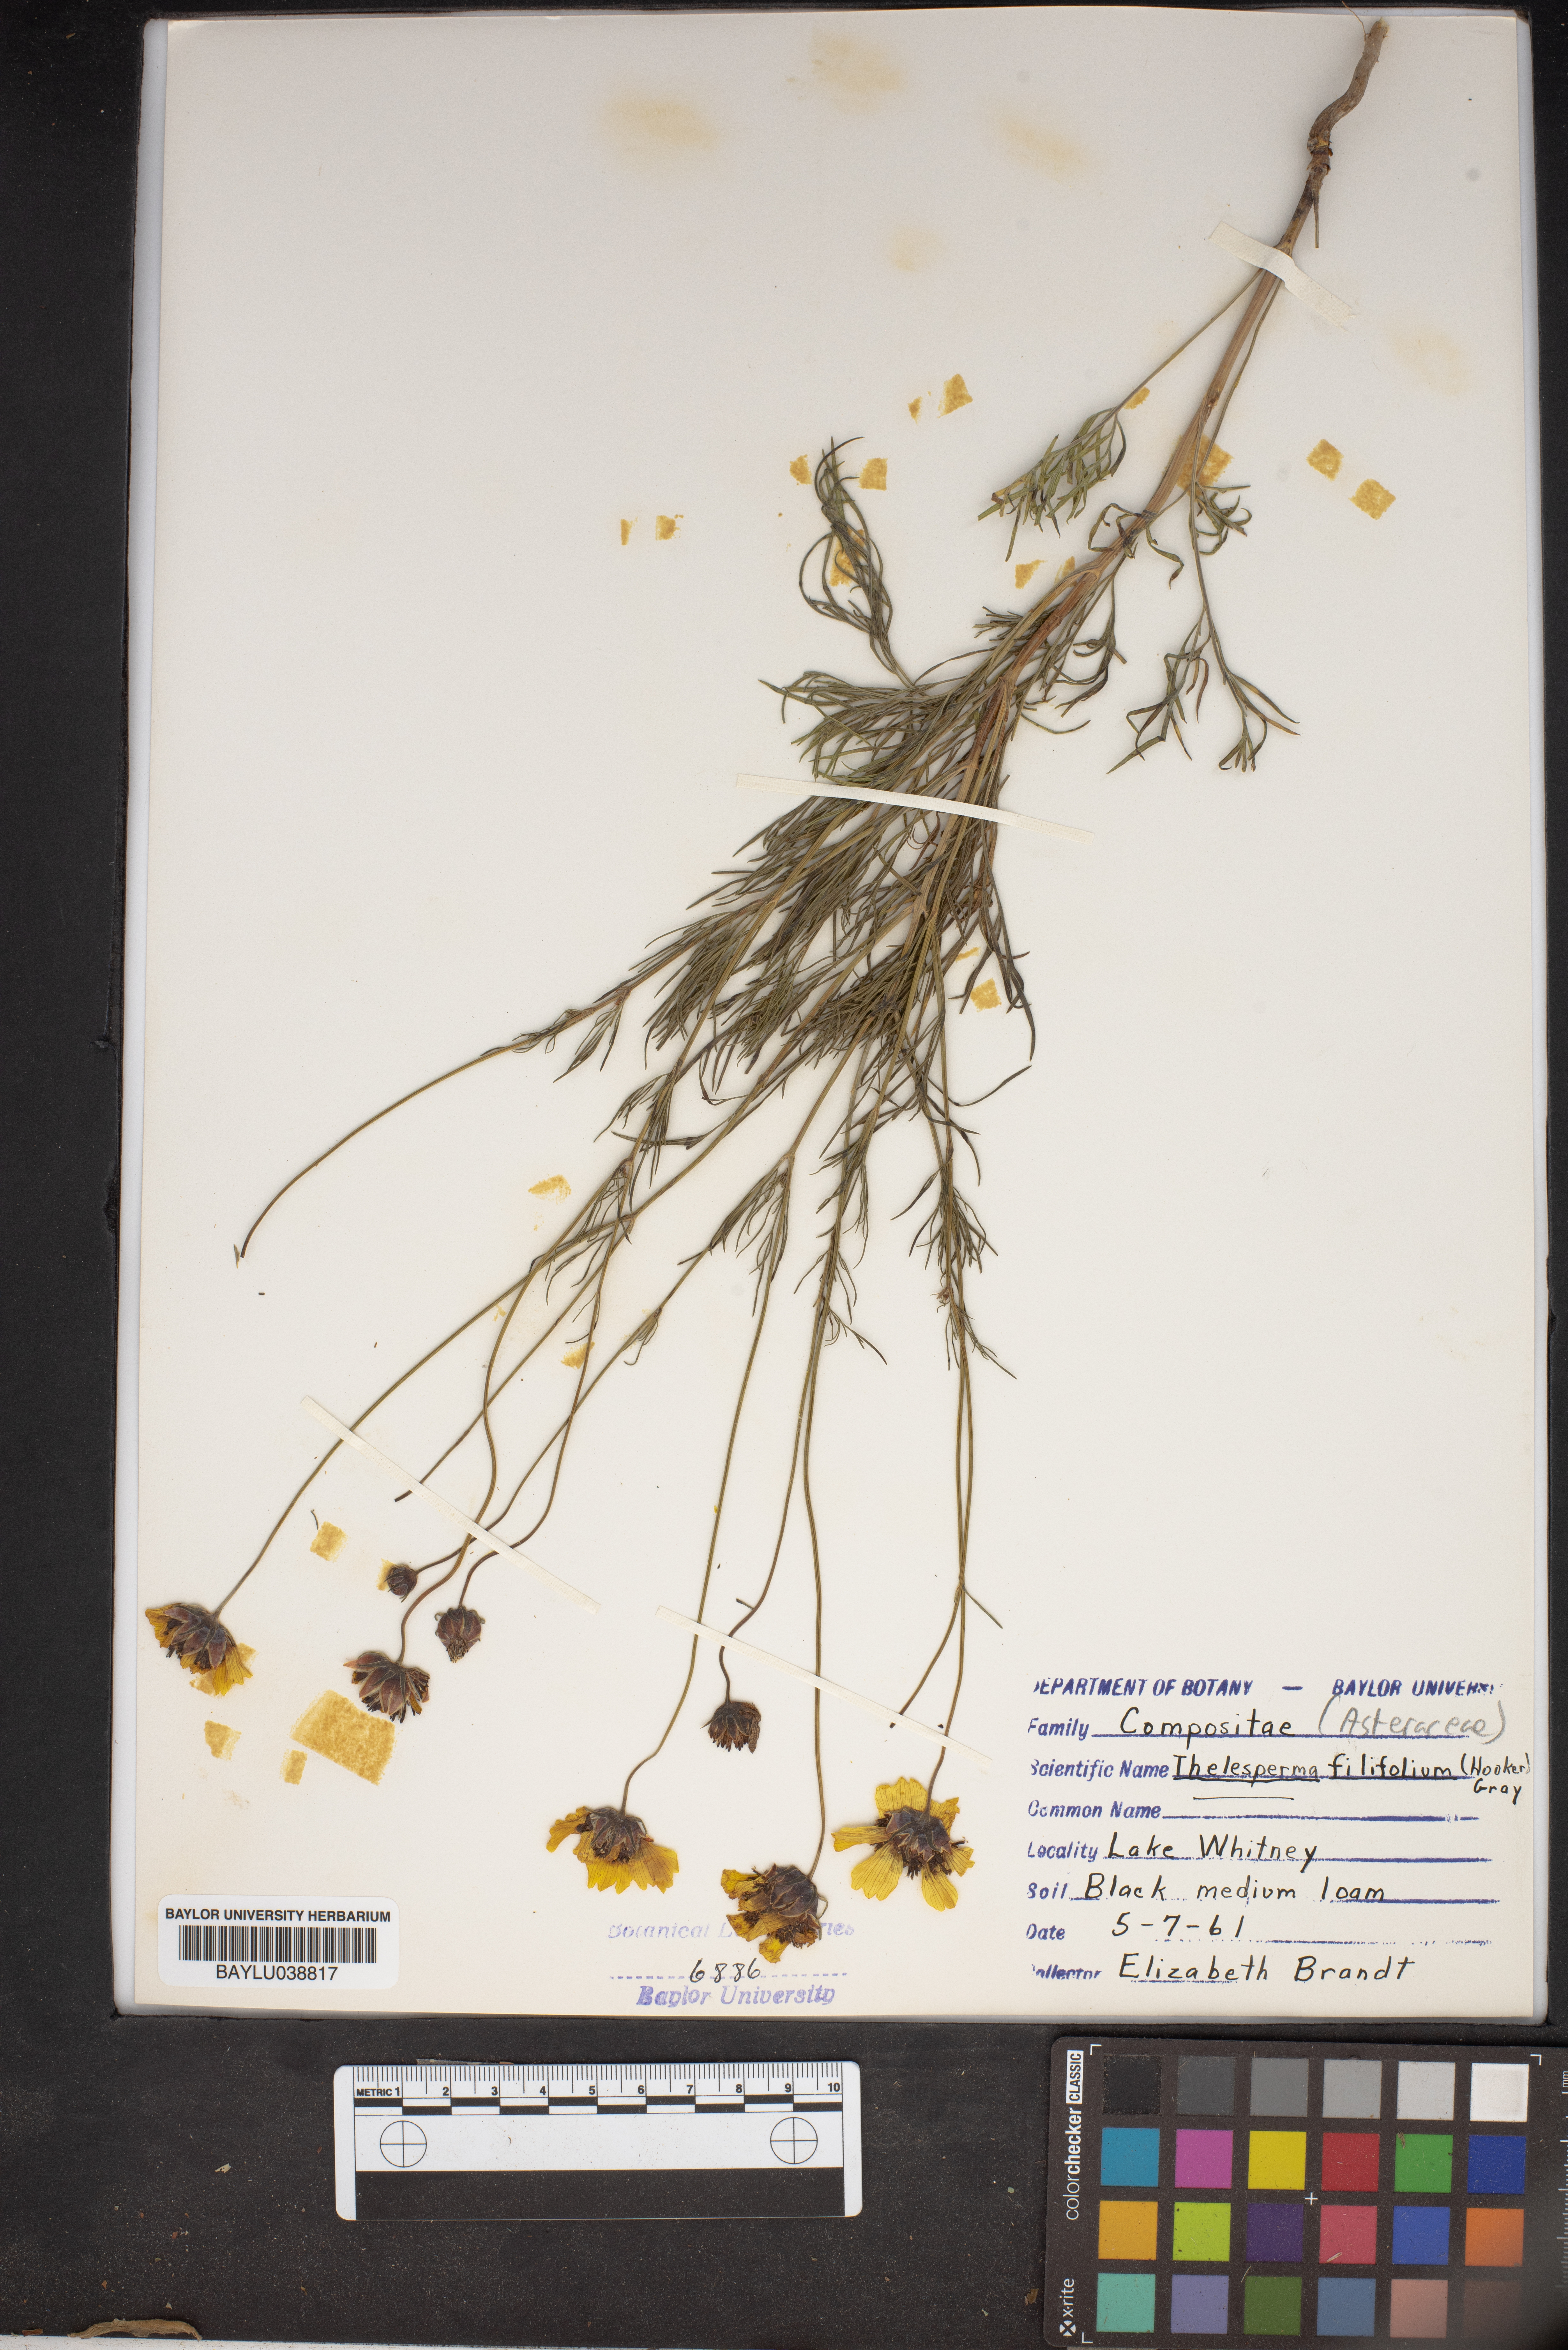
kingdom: Plantae
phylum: Tracheophyta
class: Magnoliopsida
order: Asterales
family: Asteraceae
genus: Thelesperma
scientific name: Thelesperma filifolium
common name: Stiff greenthread
